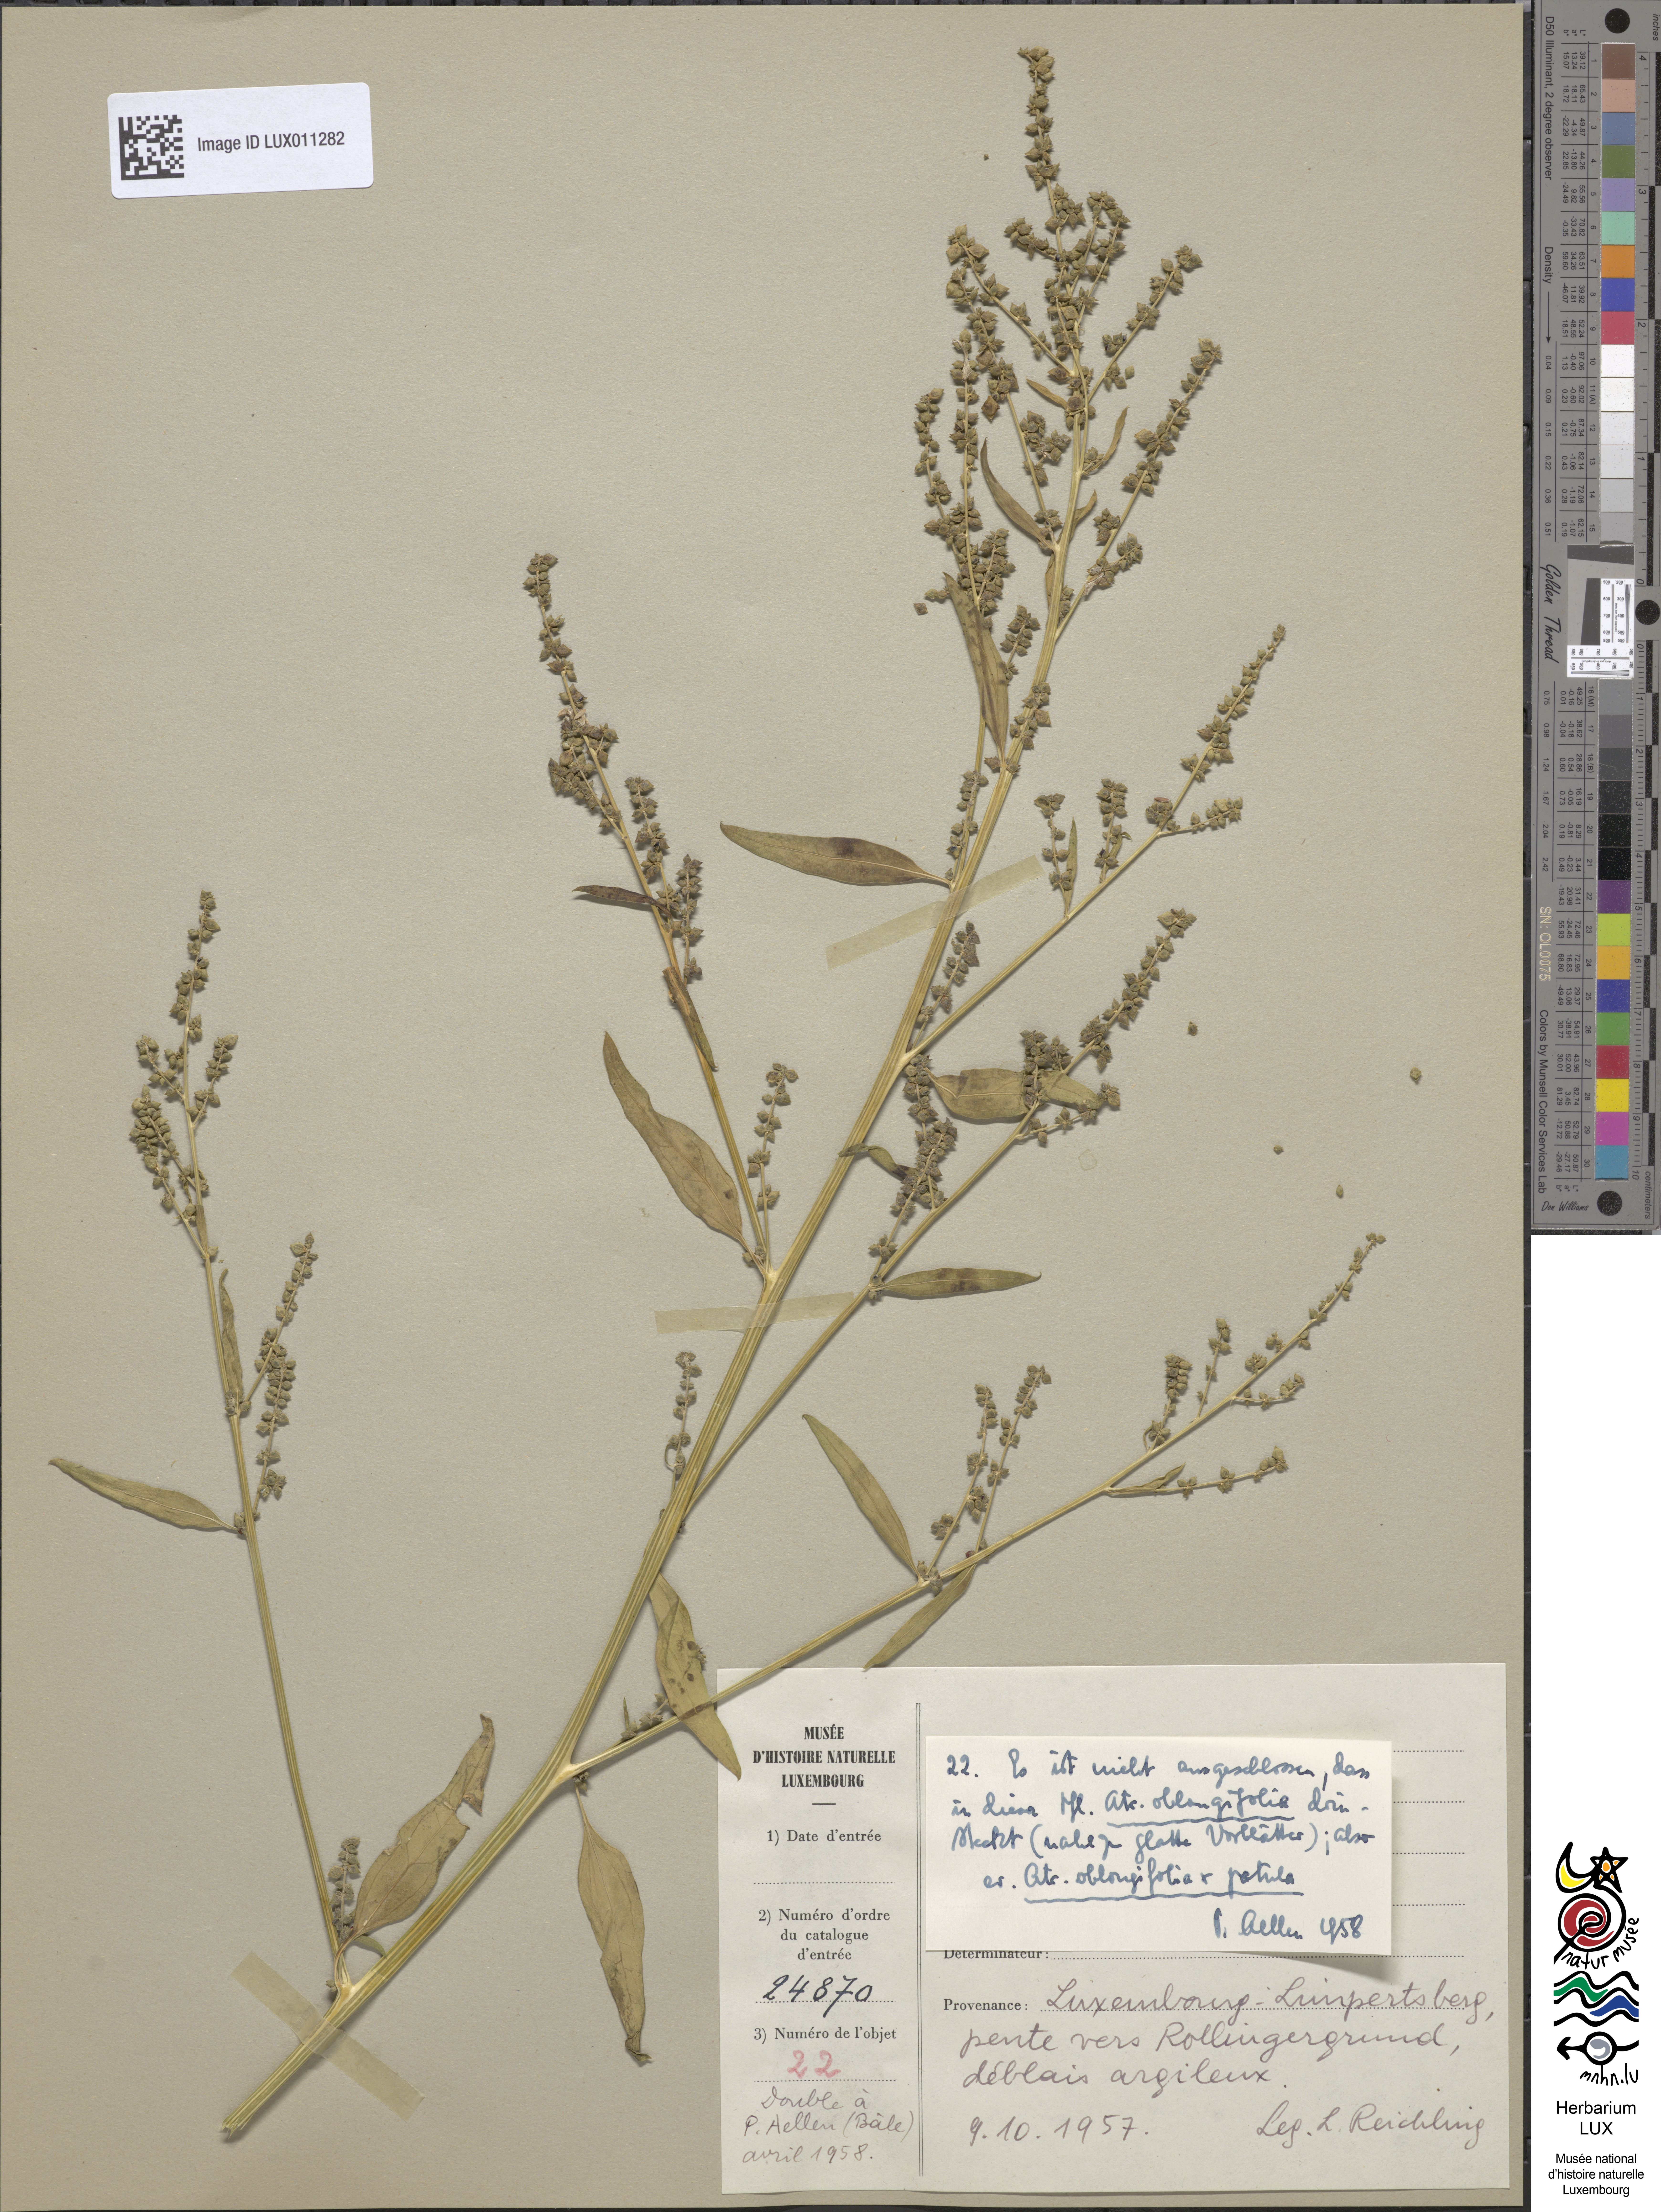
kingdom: Plantae
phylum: Tracheophyta
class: Magnoliopsida
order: Caryophyllales
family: Amaranthaceae
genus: Atriplex
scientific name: Atriplex
